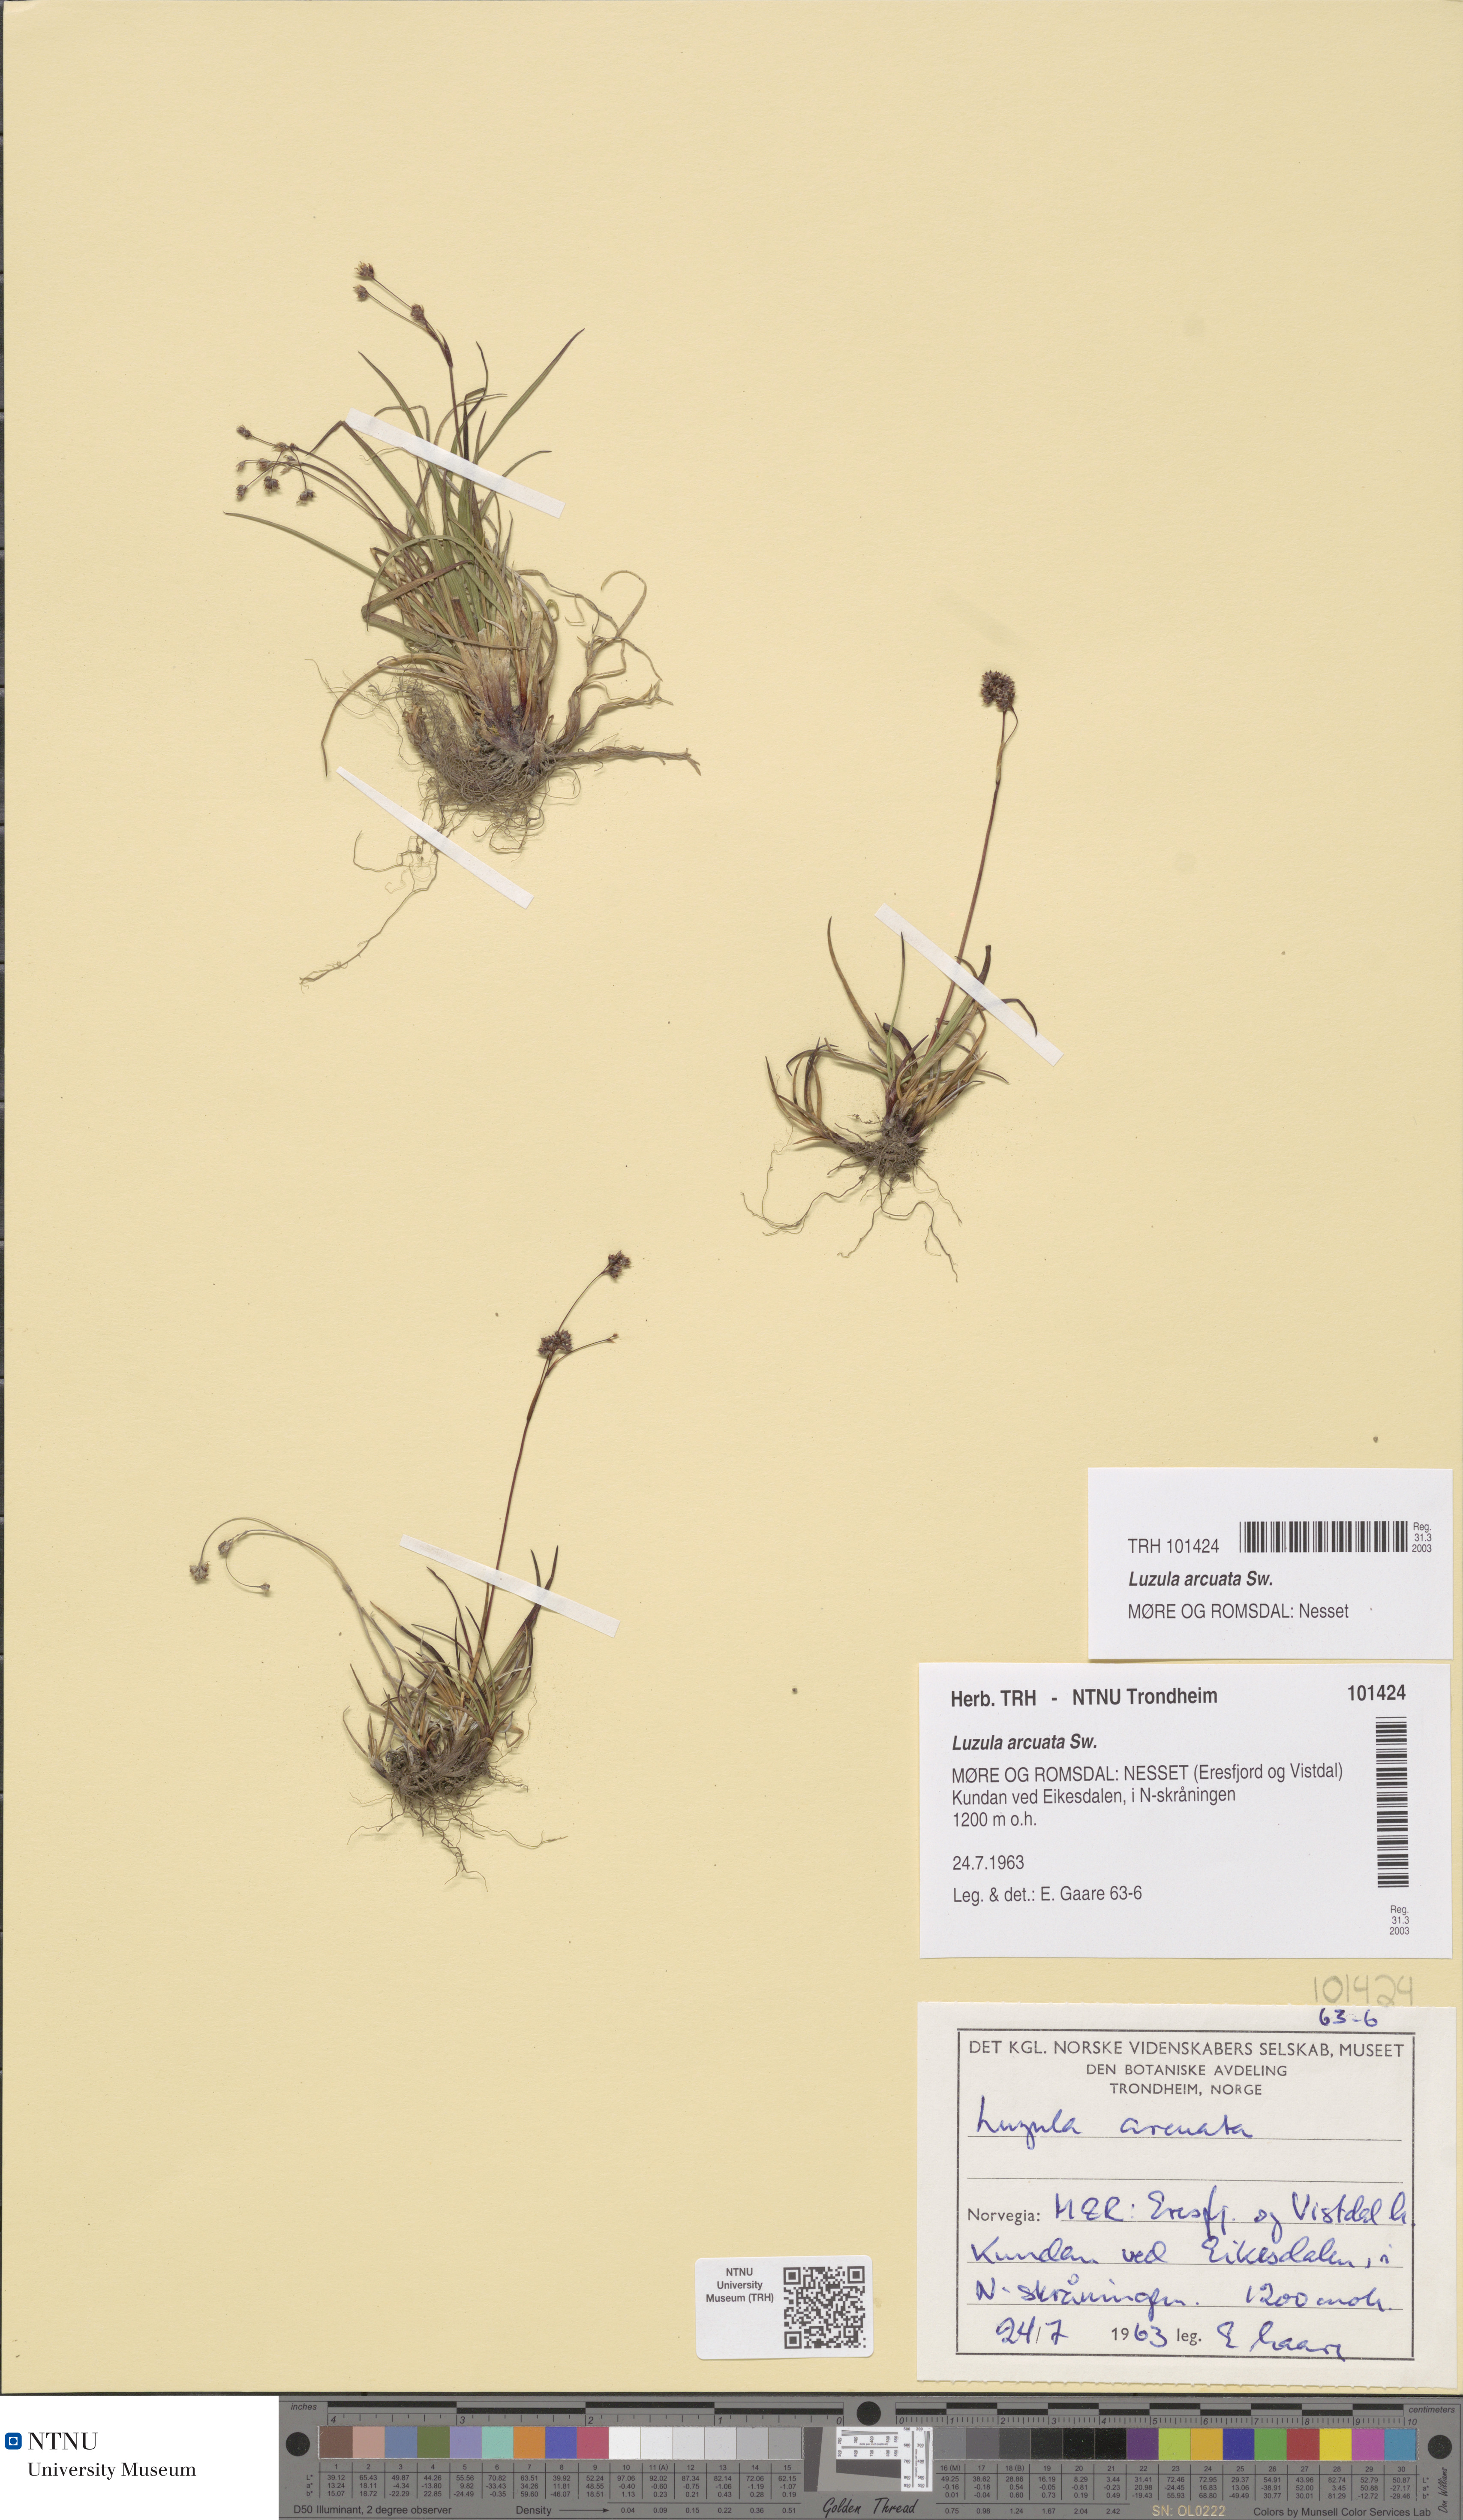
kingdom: Plantae
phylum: Tracheophyta
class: Liliopsida
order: Poales
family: Juncaceae
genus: Luzula
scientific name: Luzula arcuata
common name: Curved wood-rush
